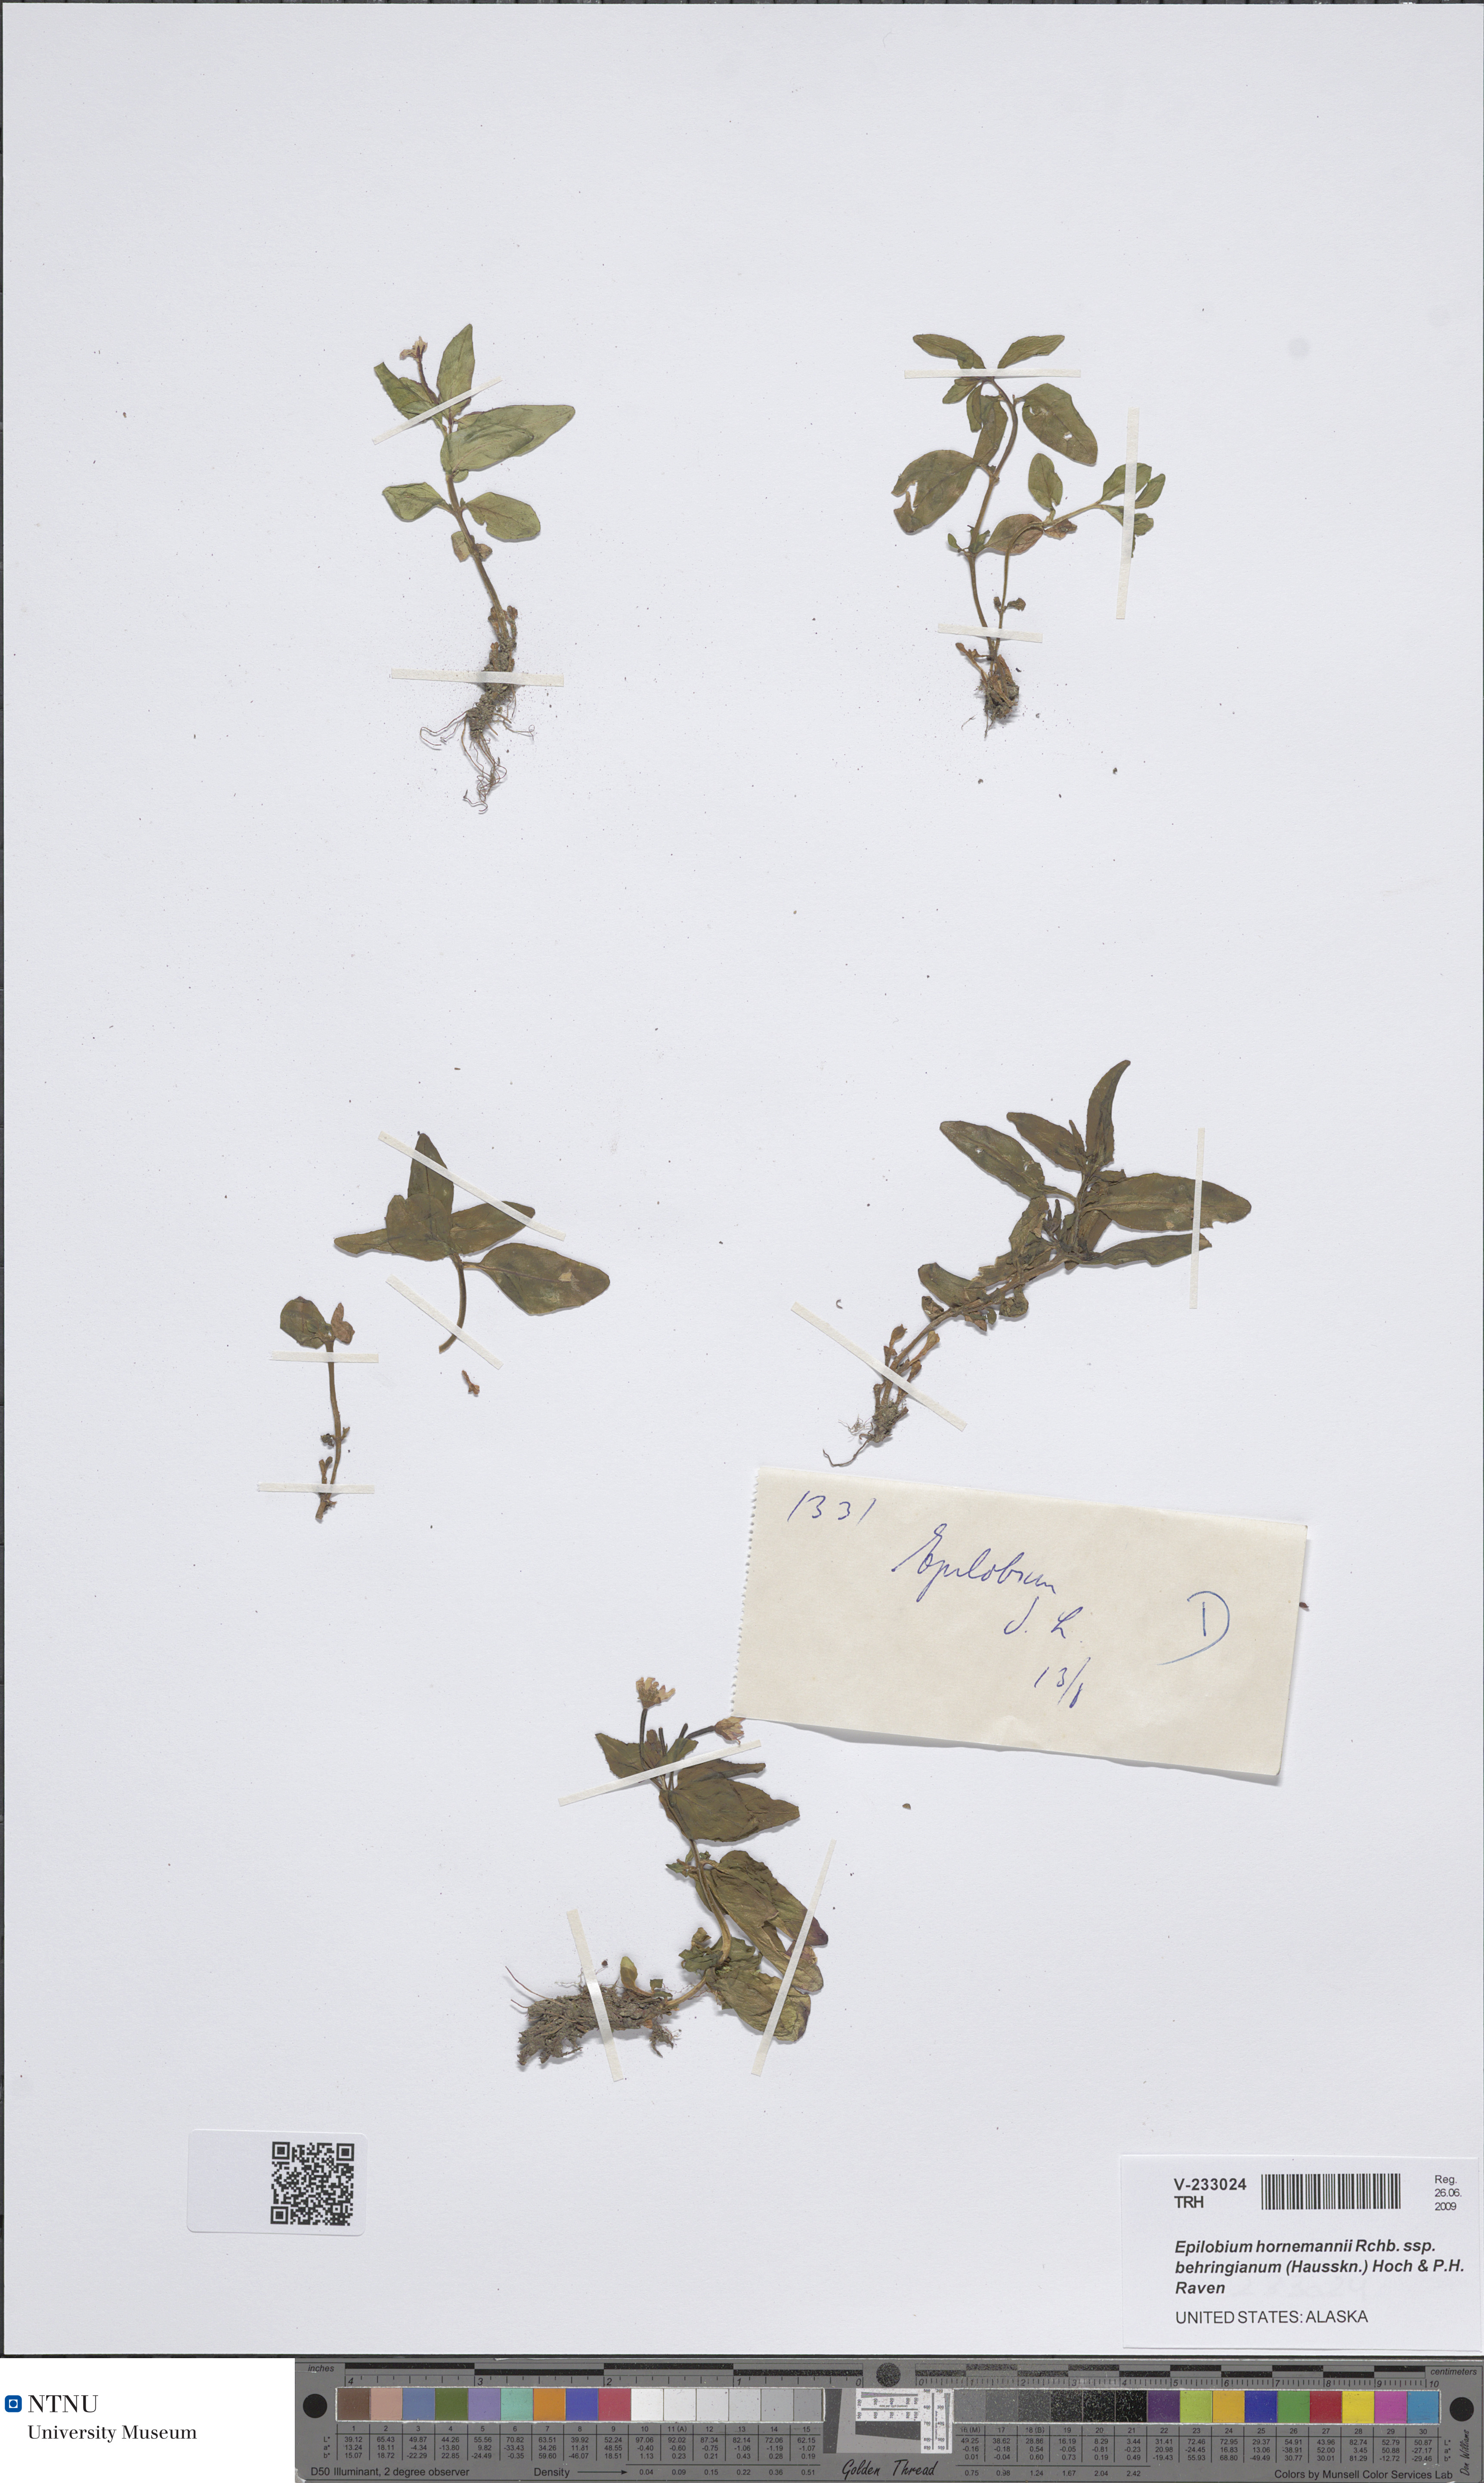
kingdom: Plantae
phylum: Tracheophyta
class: Magnoliopsida
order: Myrtales
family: Onagraceae
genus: Epilobium
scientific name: Epilobium hornemannii
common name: Hornemann's willowherb
